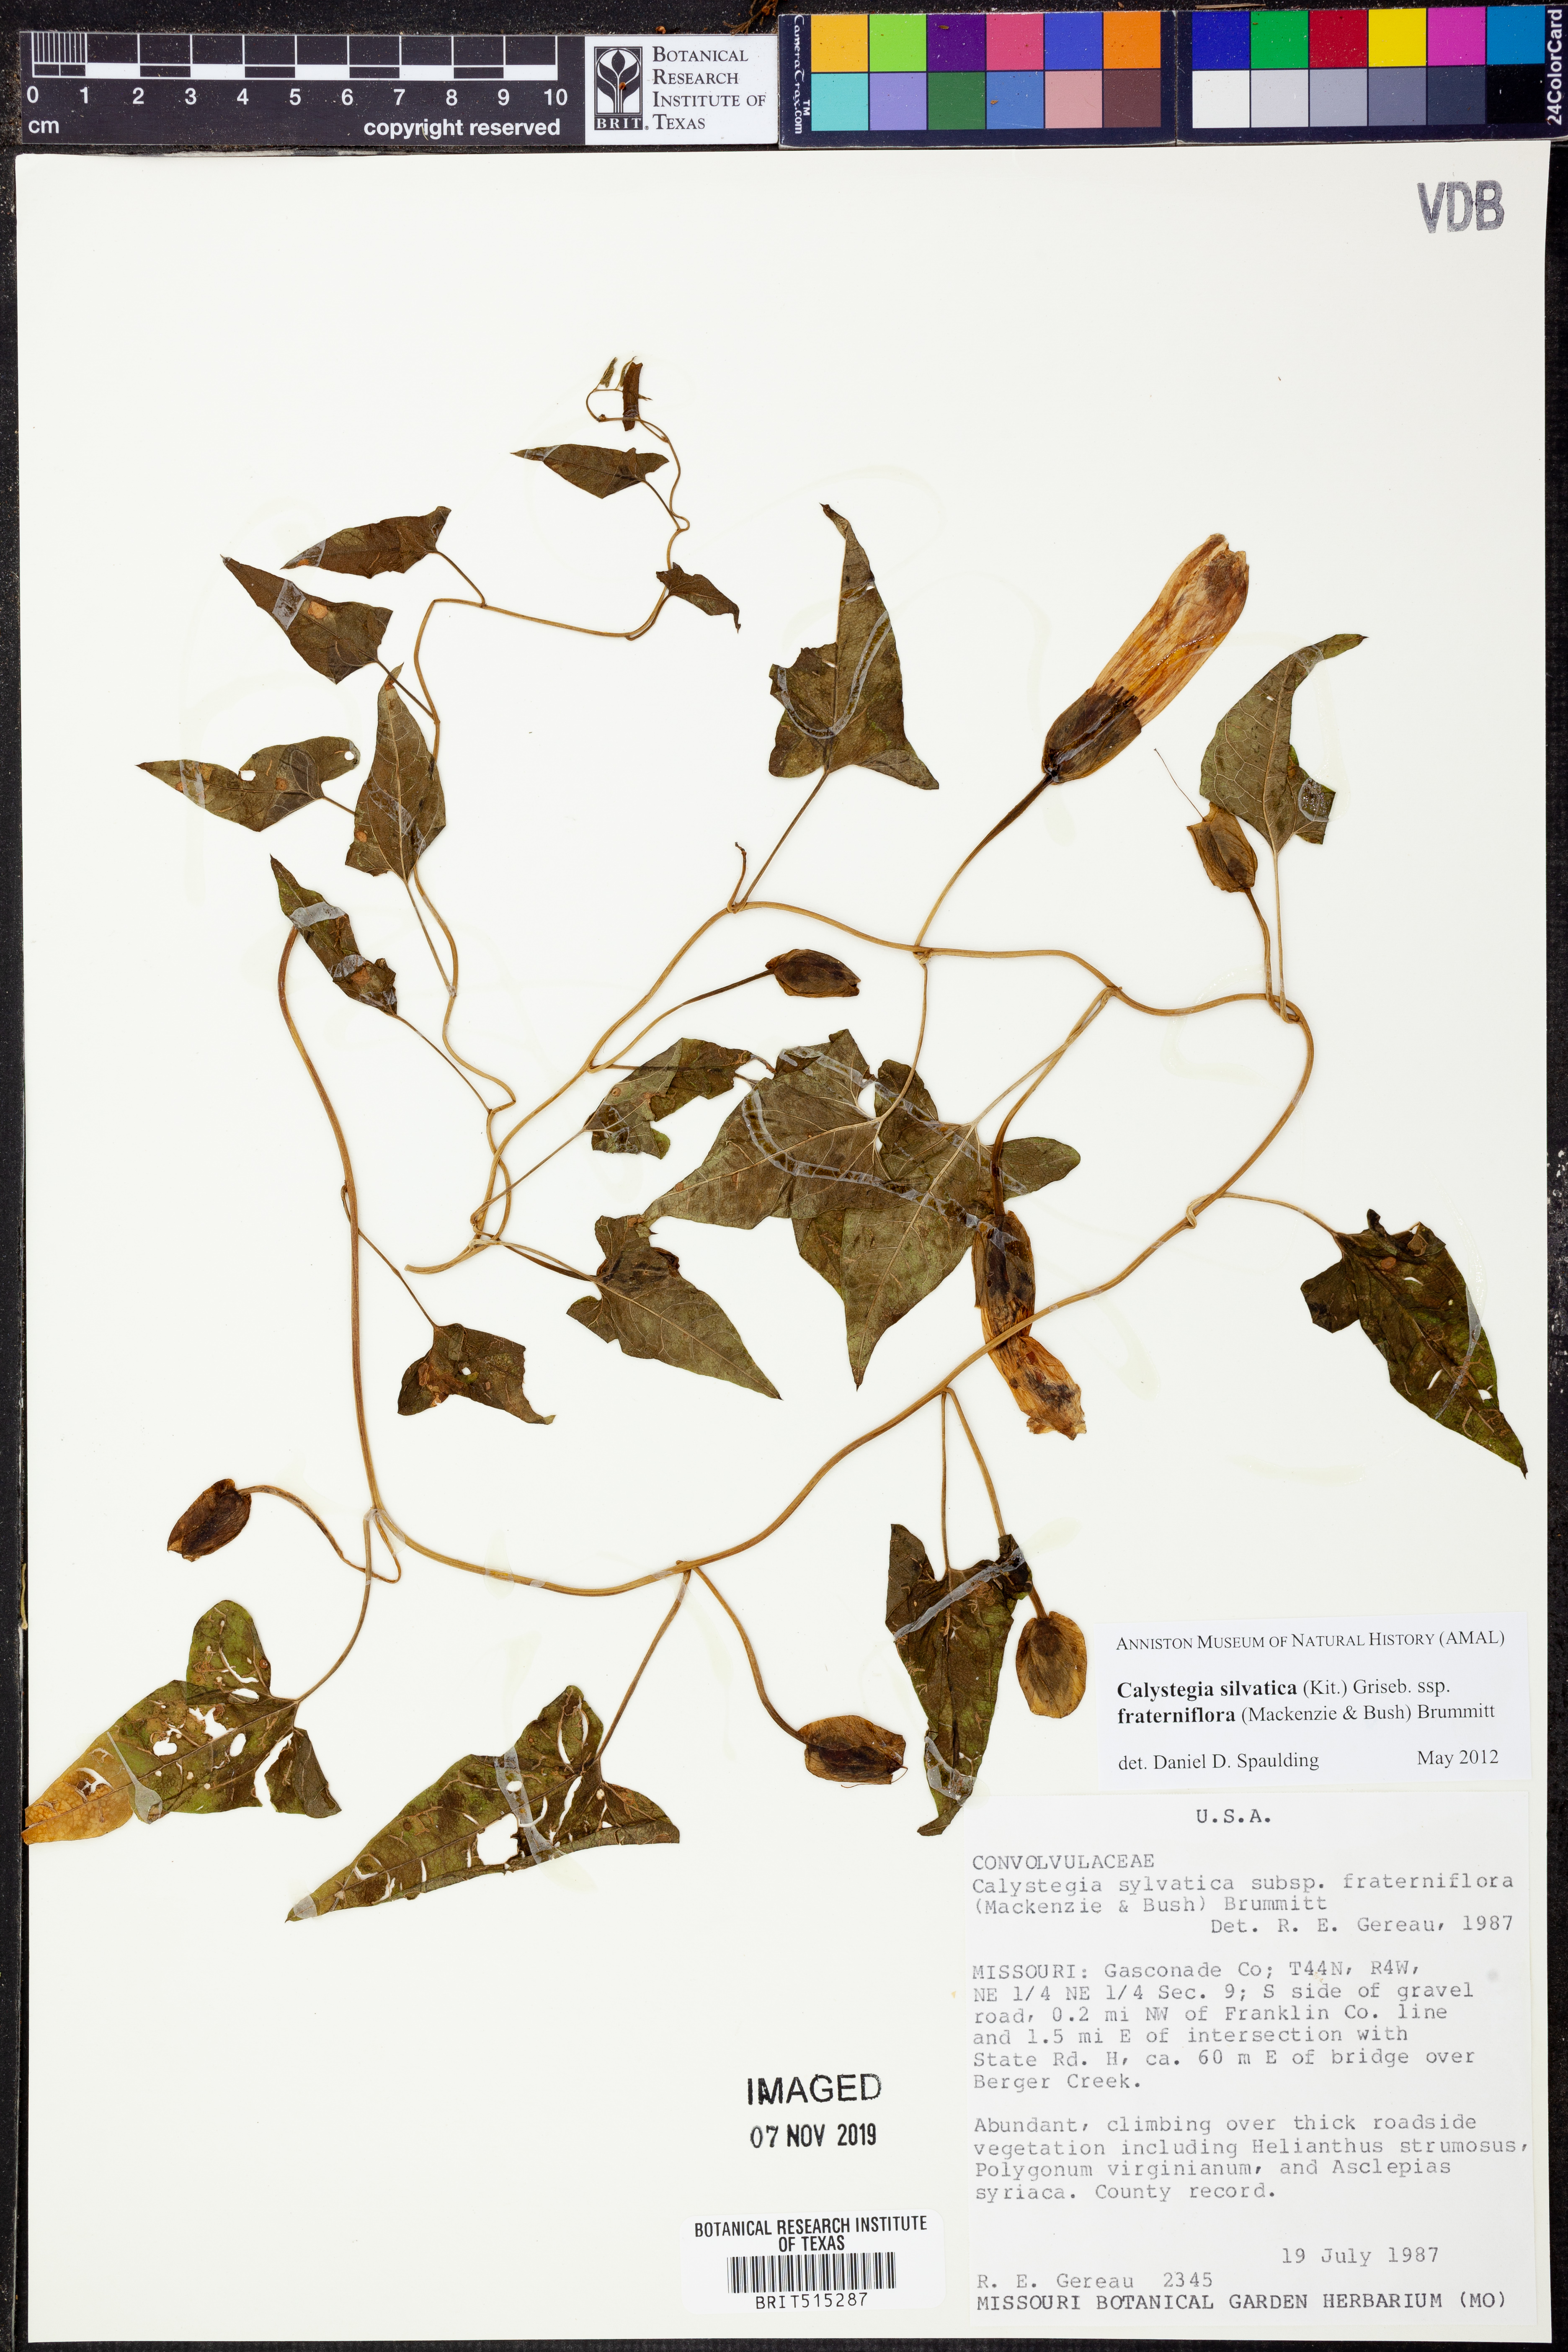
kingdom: Plantae
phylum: Tracheophyta
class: Magnoliopsida
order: Solanales
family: Convolvulaceae
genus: Calystegia
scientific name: Calystegia silvatica
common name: Large bindweed
